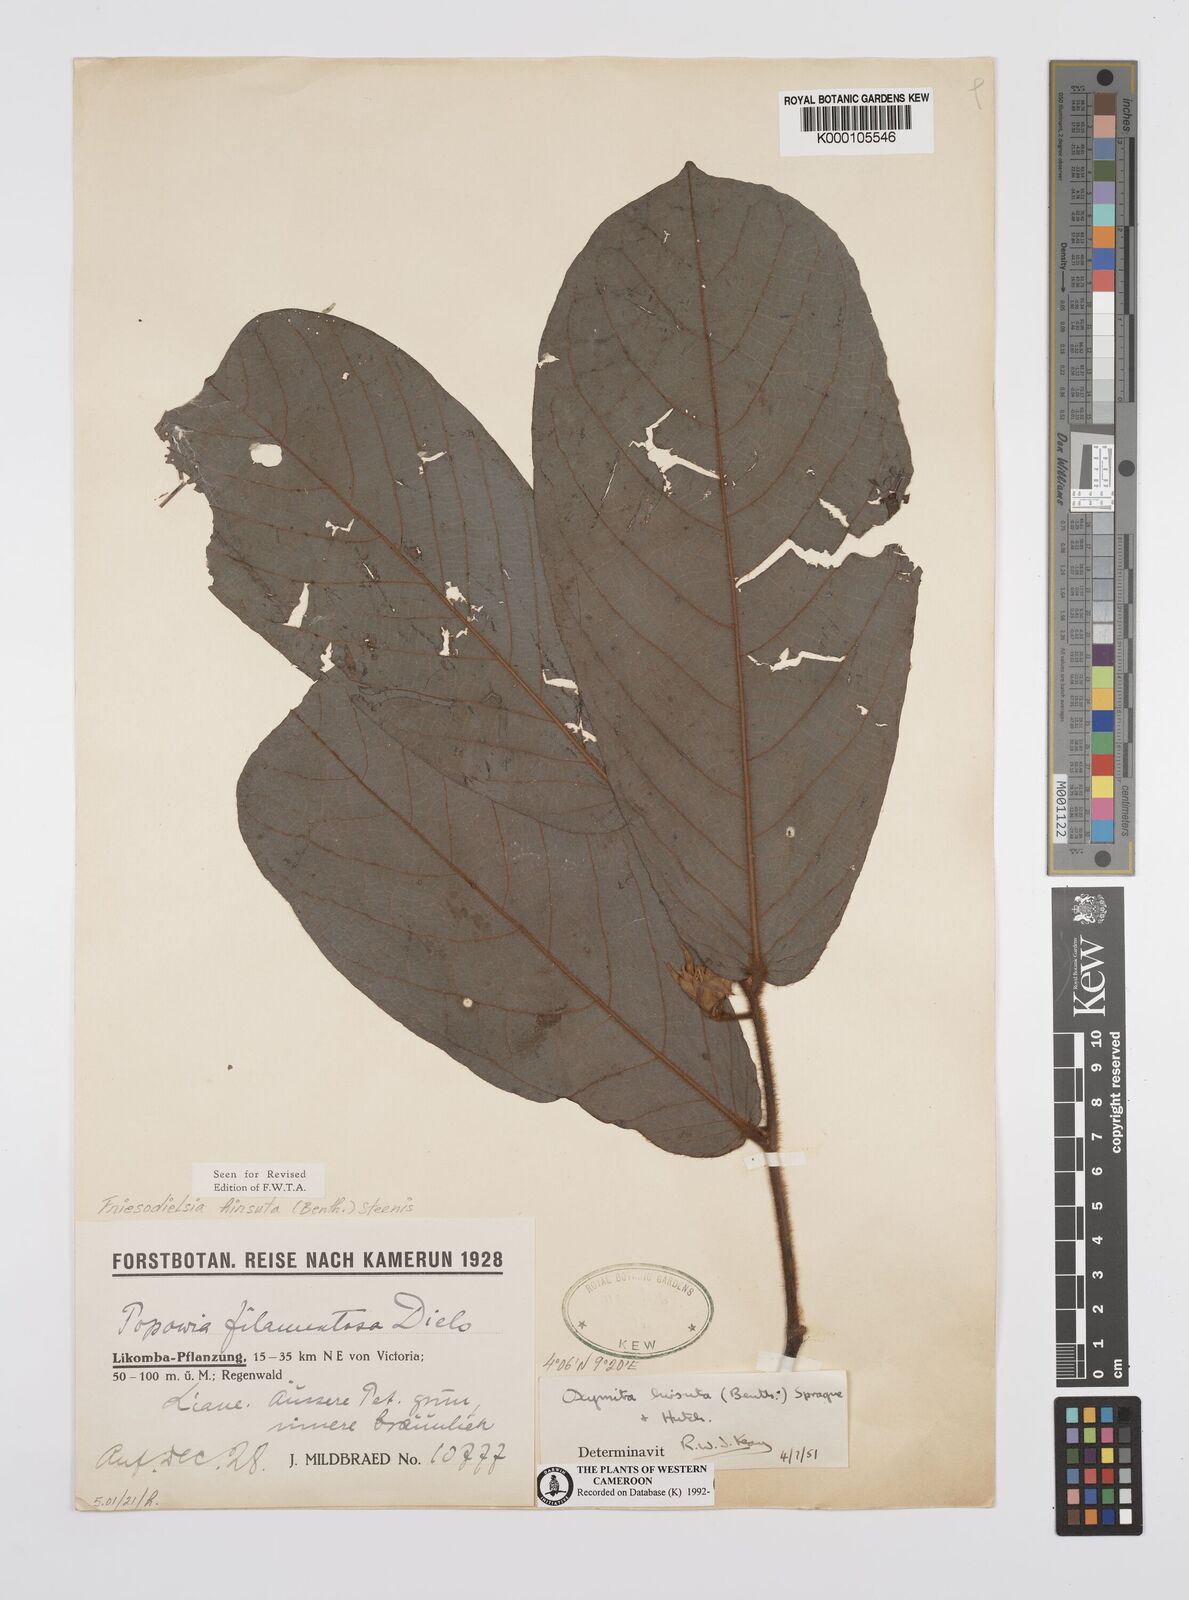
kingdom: Plantae
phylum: Tracheophyta
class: Magnoliopsida
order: Magnoliales
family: Annonaceae
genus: Friesodielsia
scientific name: Friesodielsia hirsuta
